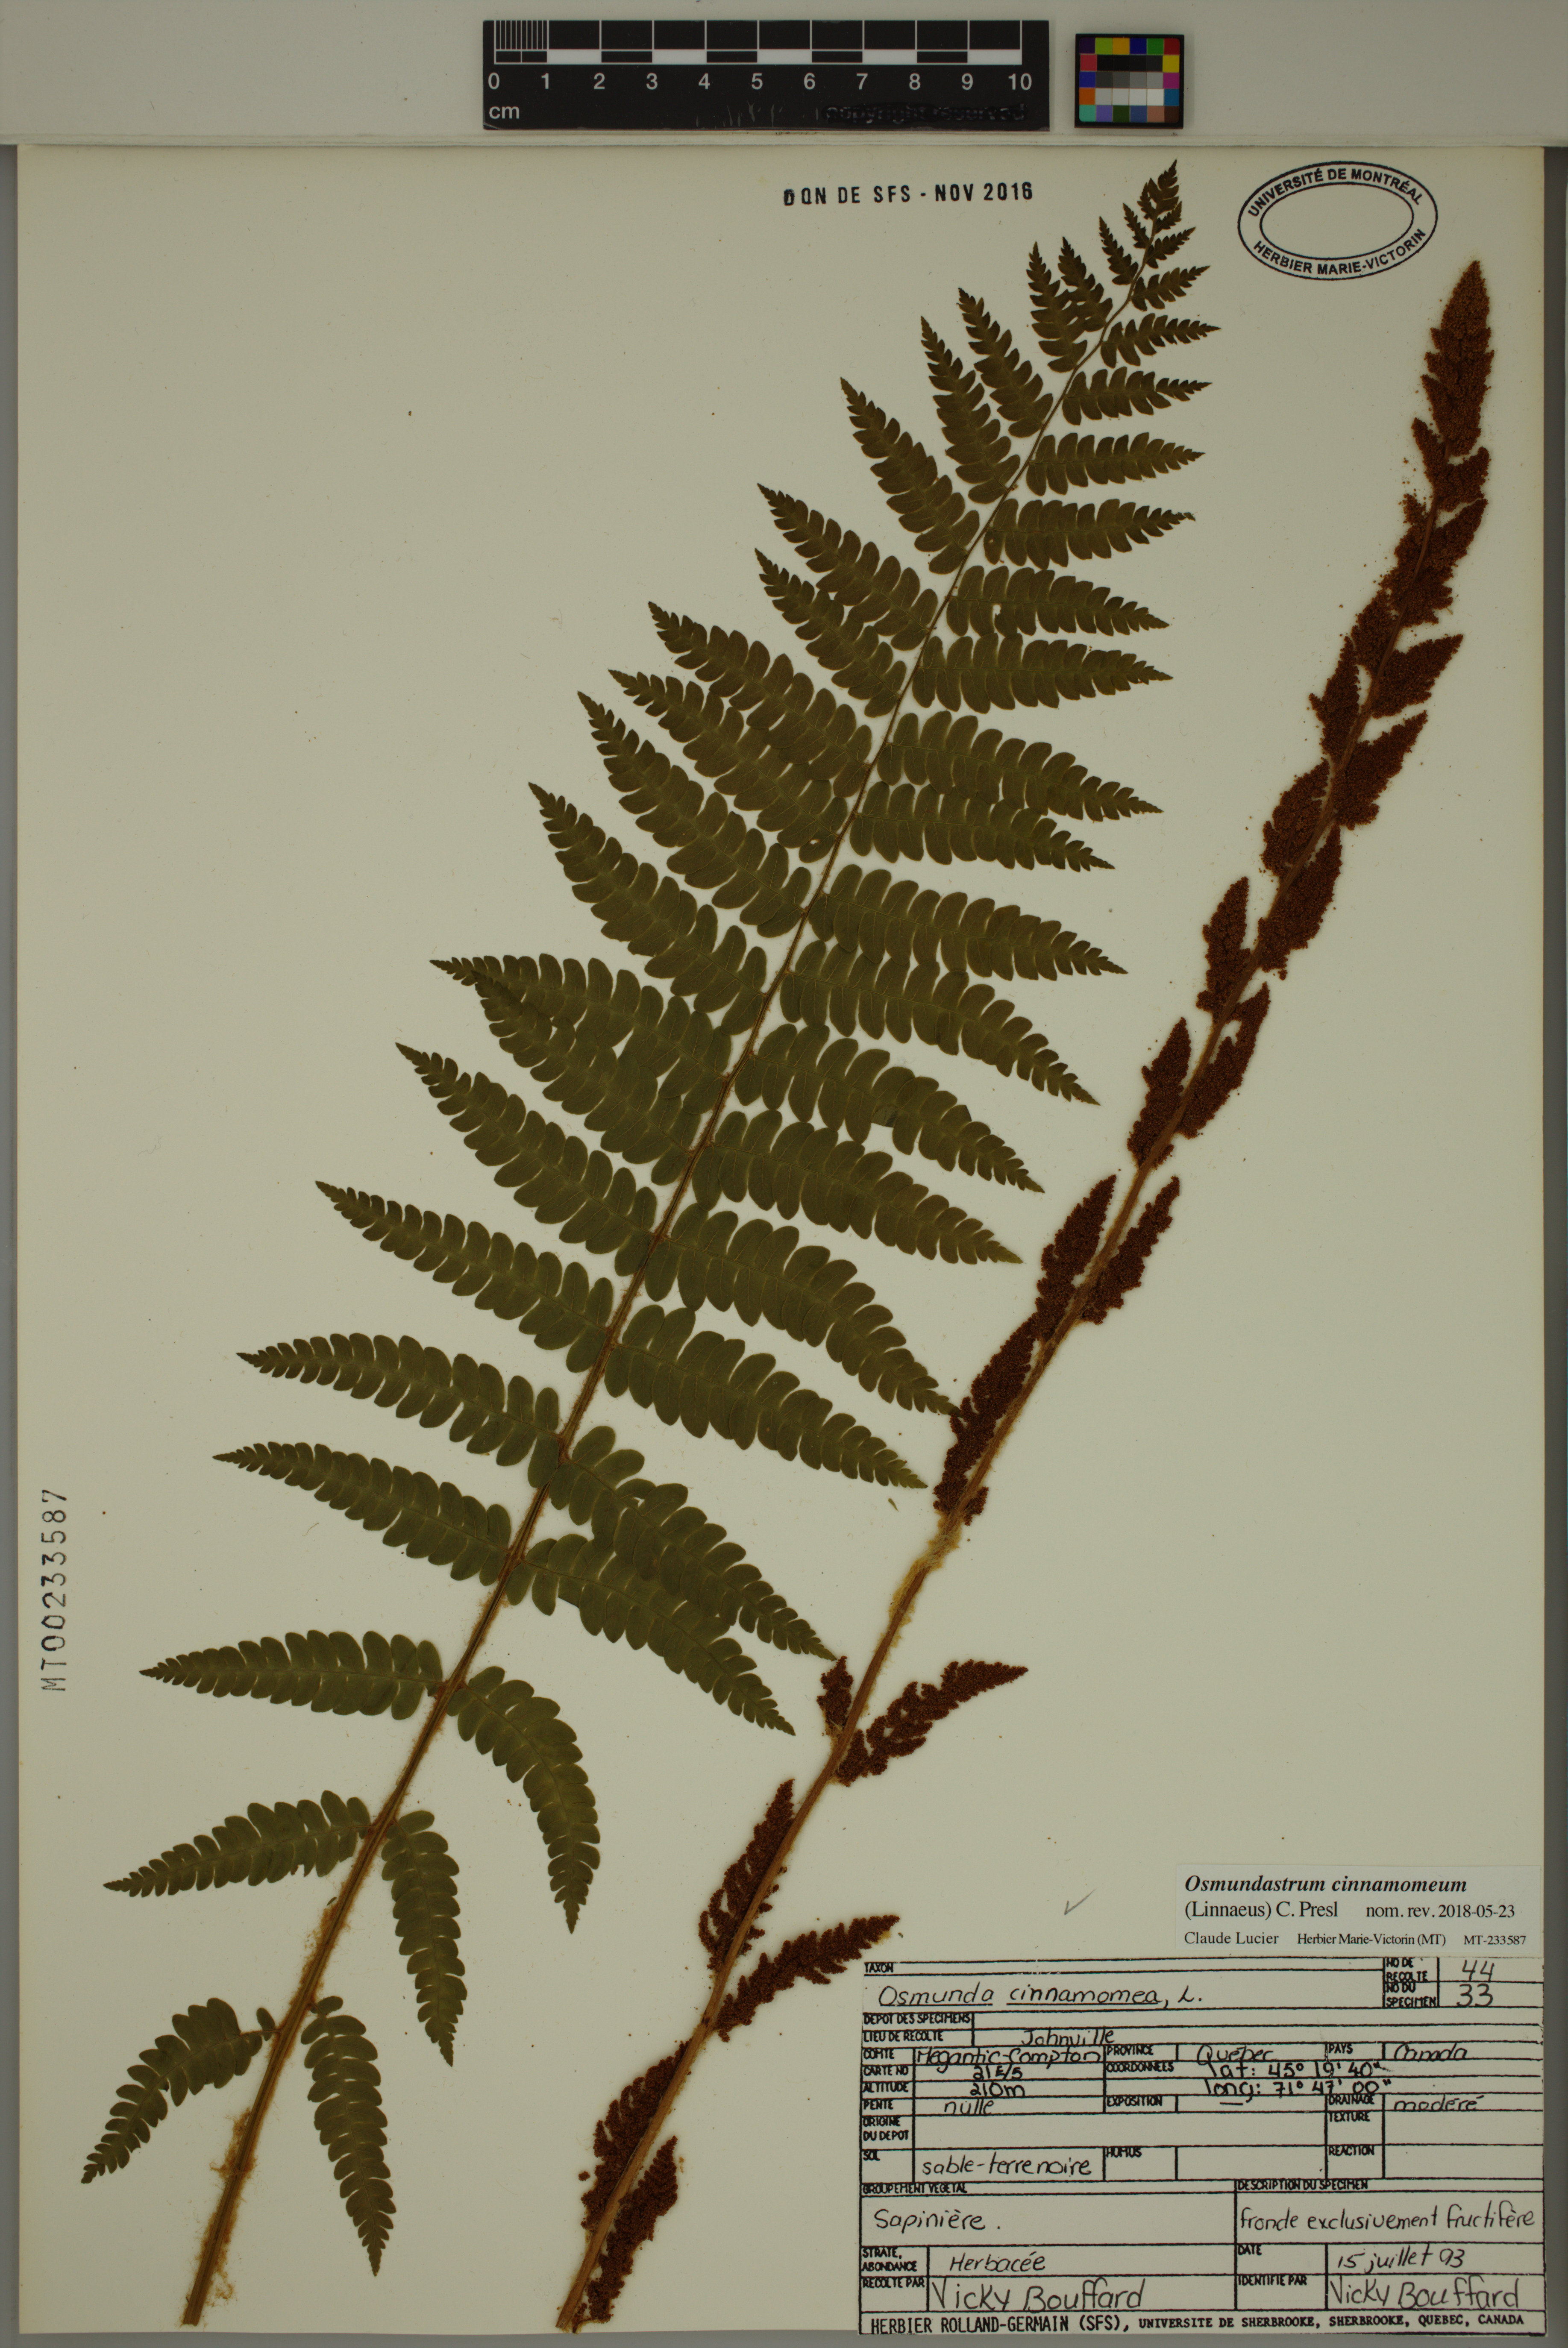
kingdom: Plantae
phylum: Tracheophyta
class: Polypodiopsida
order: Osmundales
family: Osmundaceae
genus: Osmundastrum
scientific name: Osmundastrum cinnamomeum
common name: Cinnamon fern
